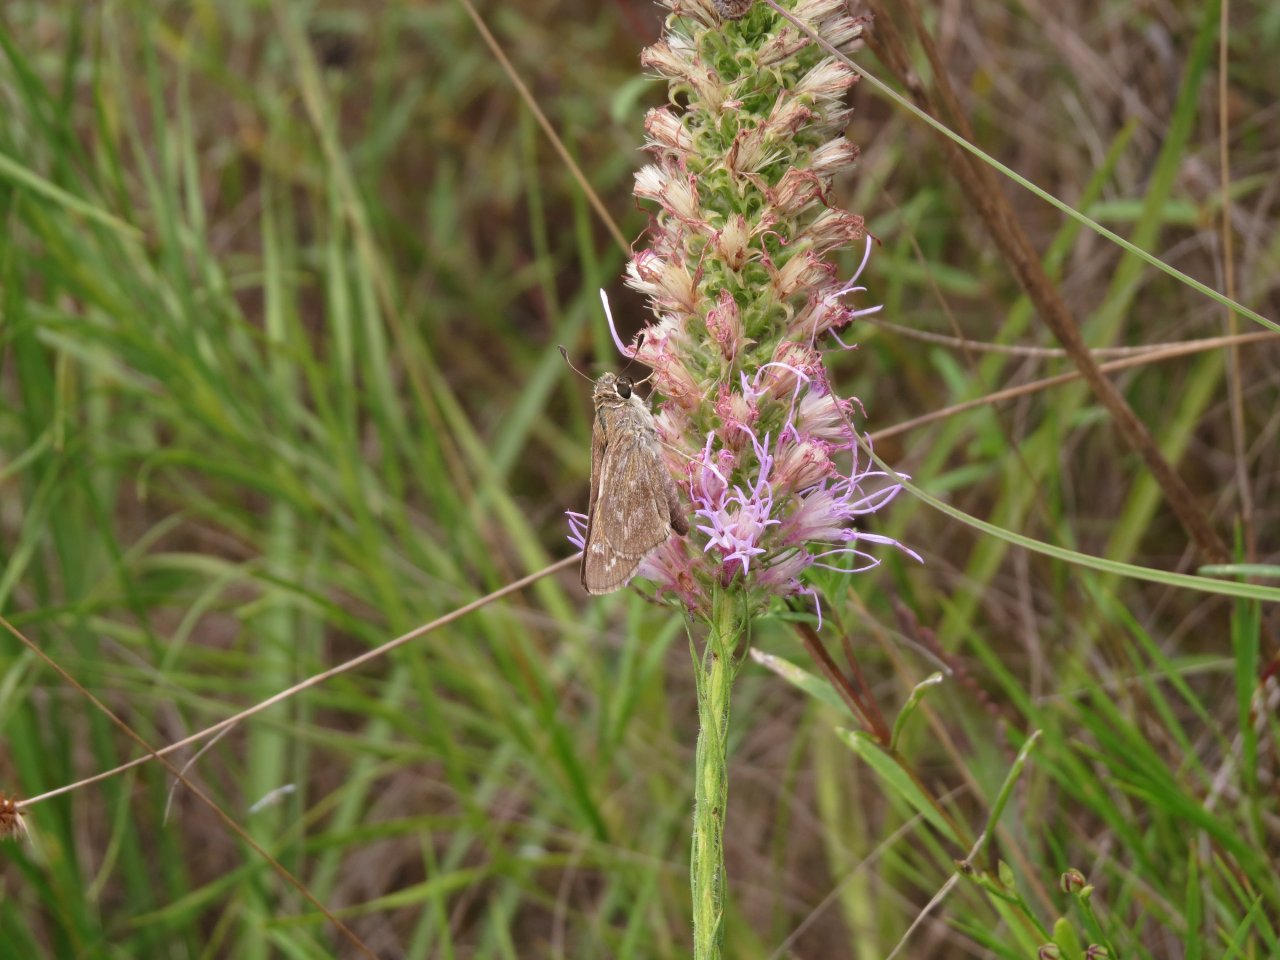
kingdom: Animalia
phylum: Arthropoda
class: Insecta
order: Lepidoptera
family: Hesperiidae
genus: Atalopedes
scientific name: Atalopedes campestris
